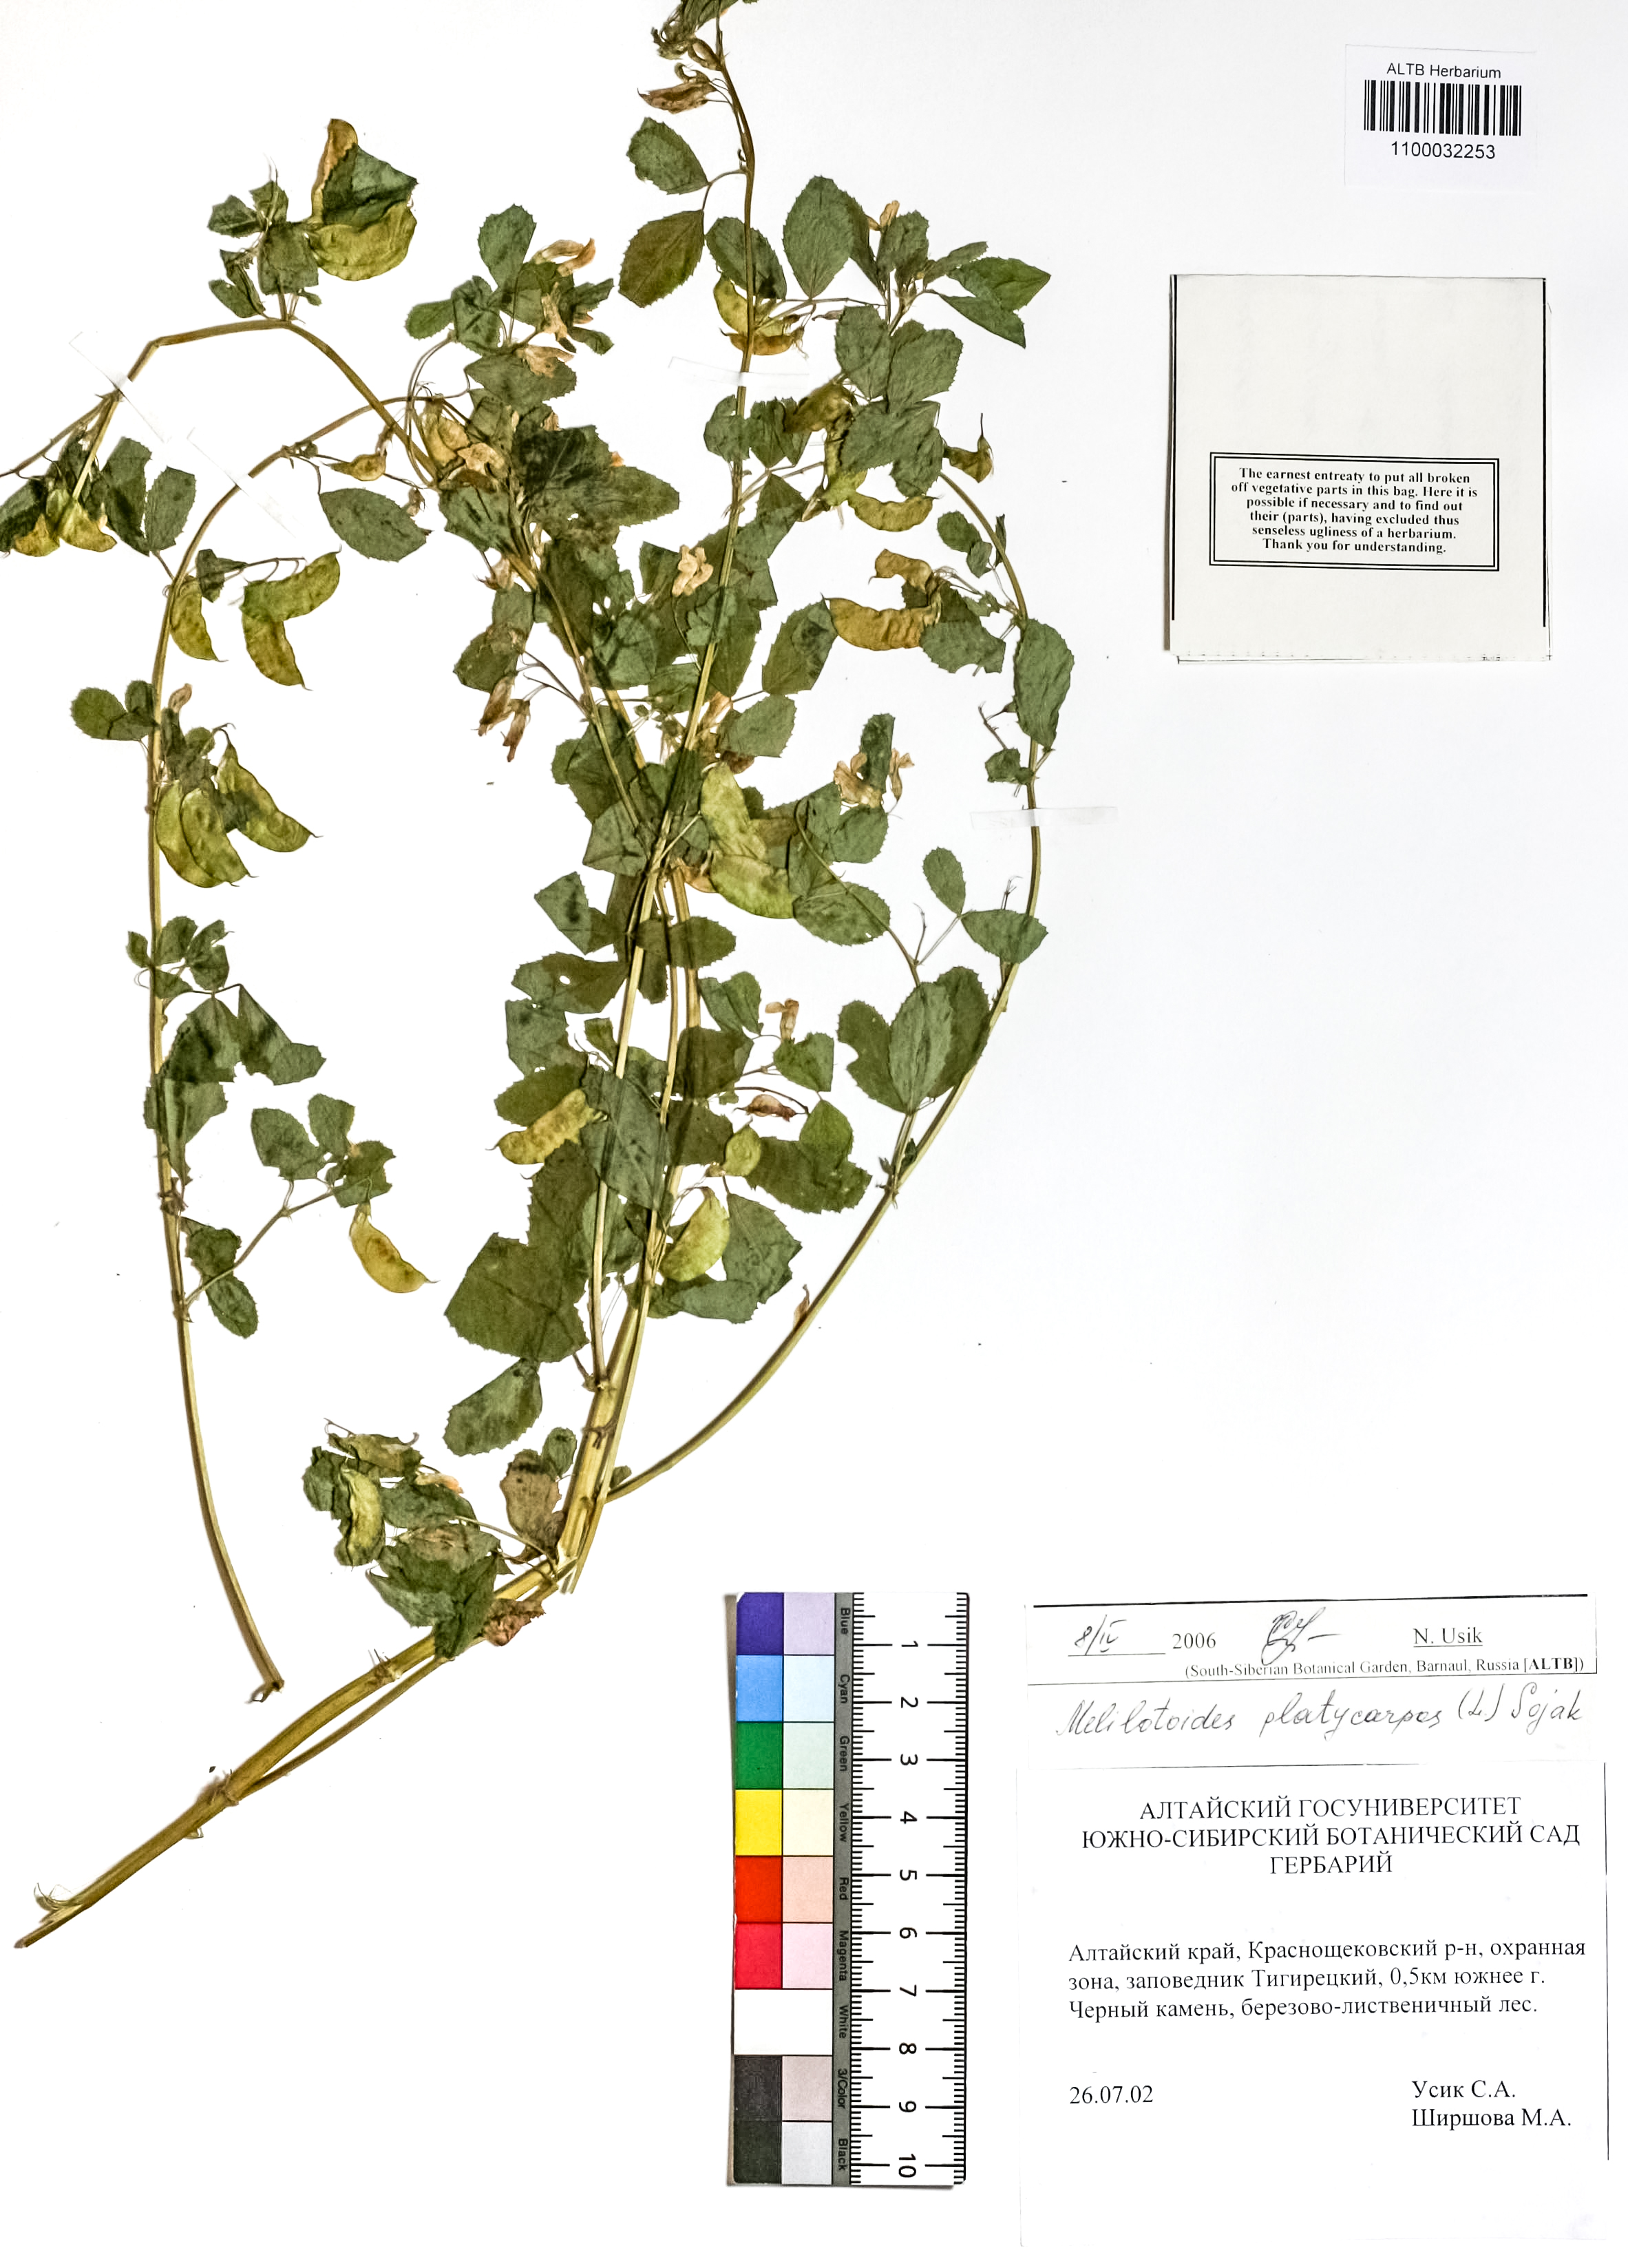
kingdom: Plantae
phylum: Tracheophyta
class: Magnoliopsida
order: Fabales
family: Fabaceae
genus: Medicago
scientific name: Medicago platycarpos
